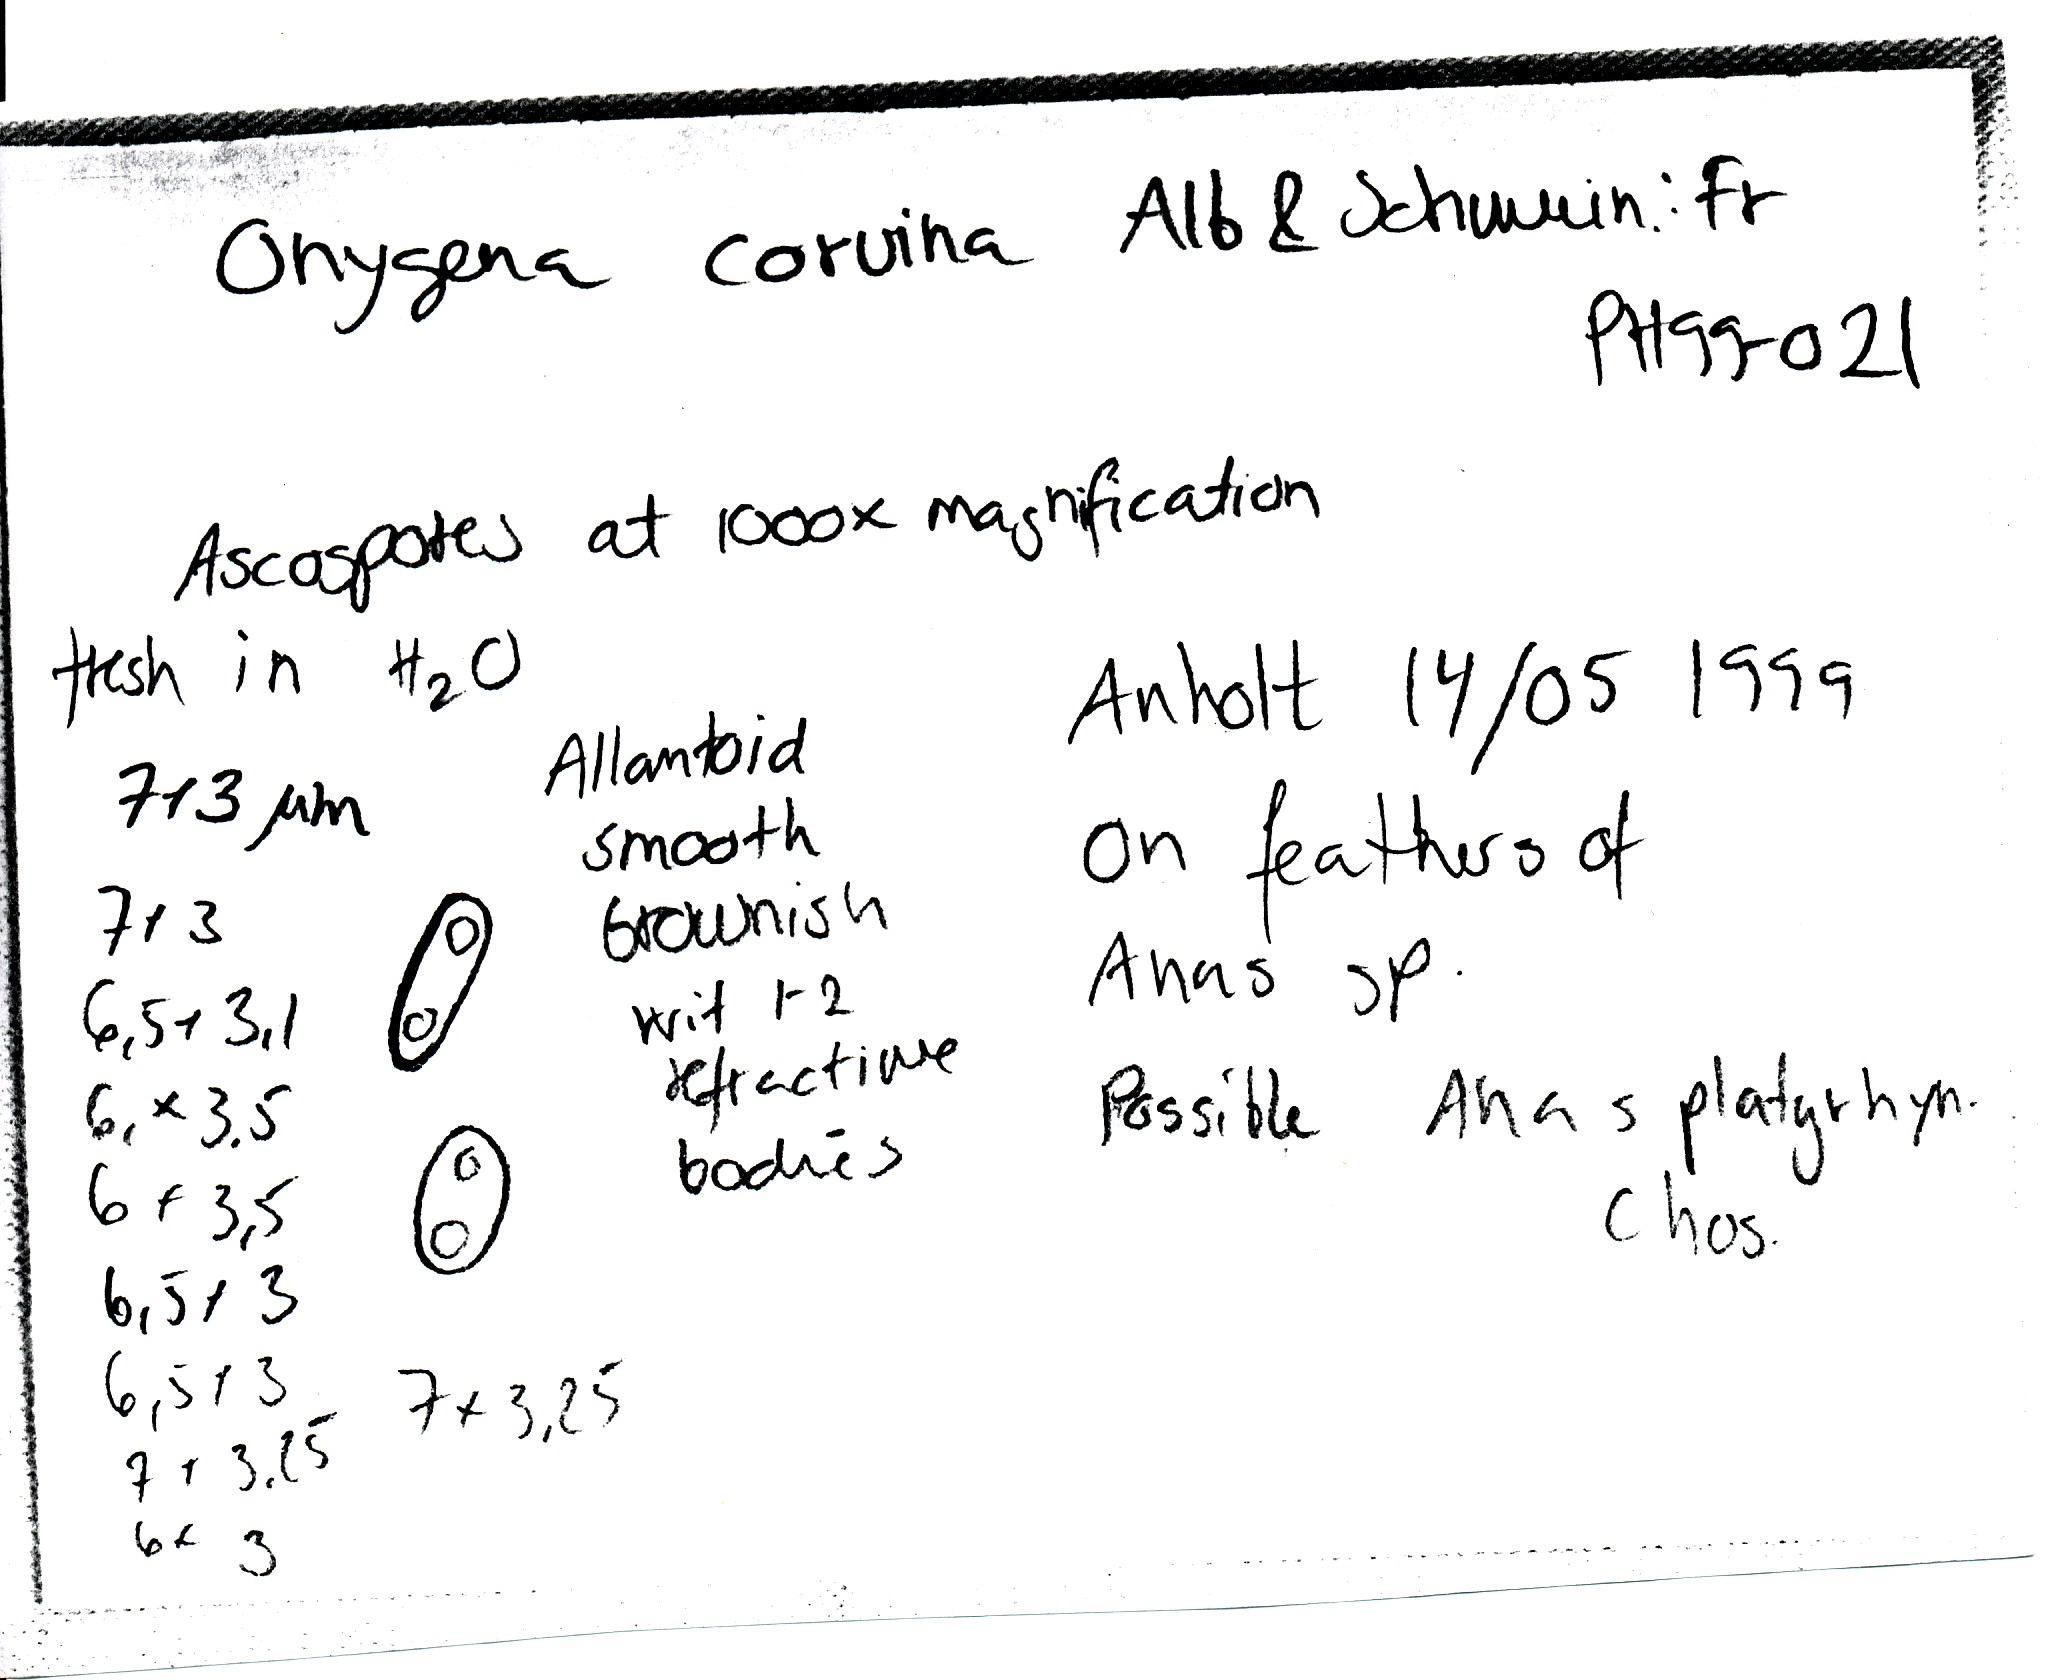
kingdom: Fungi
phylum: Ascomycota
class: Eurotiomycetes
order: Onygenales
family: Onygenaceae
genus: Onygena
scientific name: Onygena corvina
